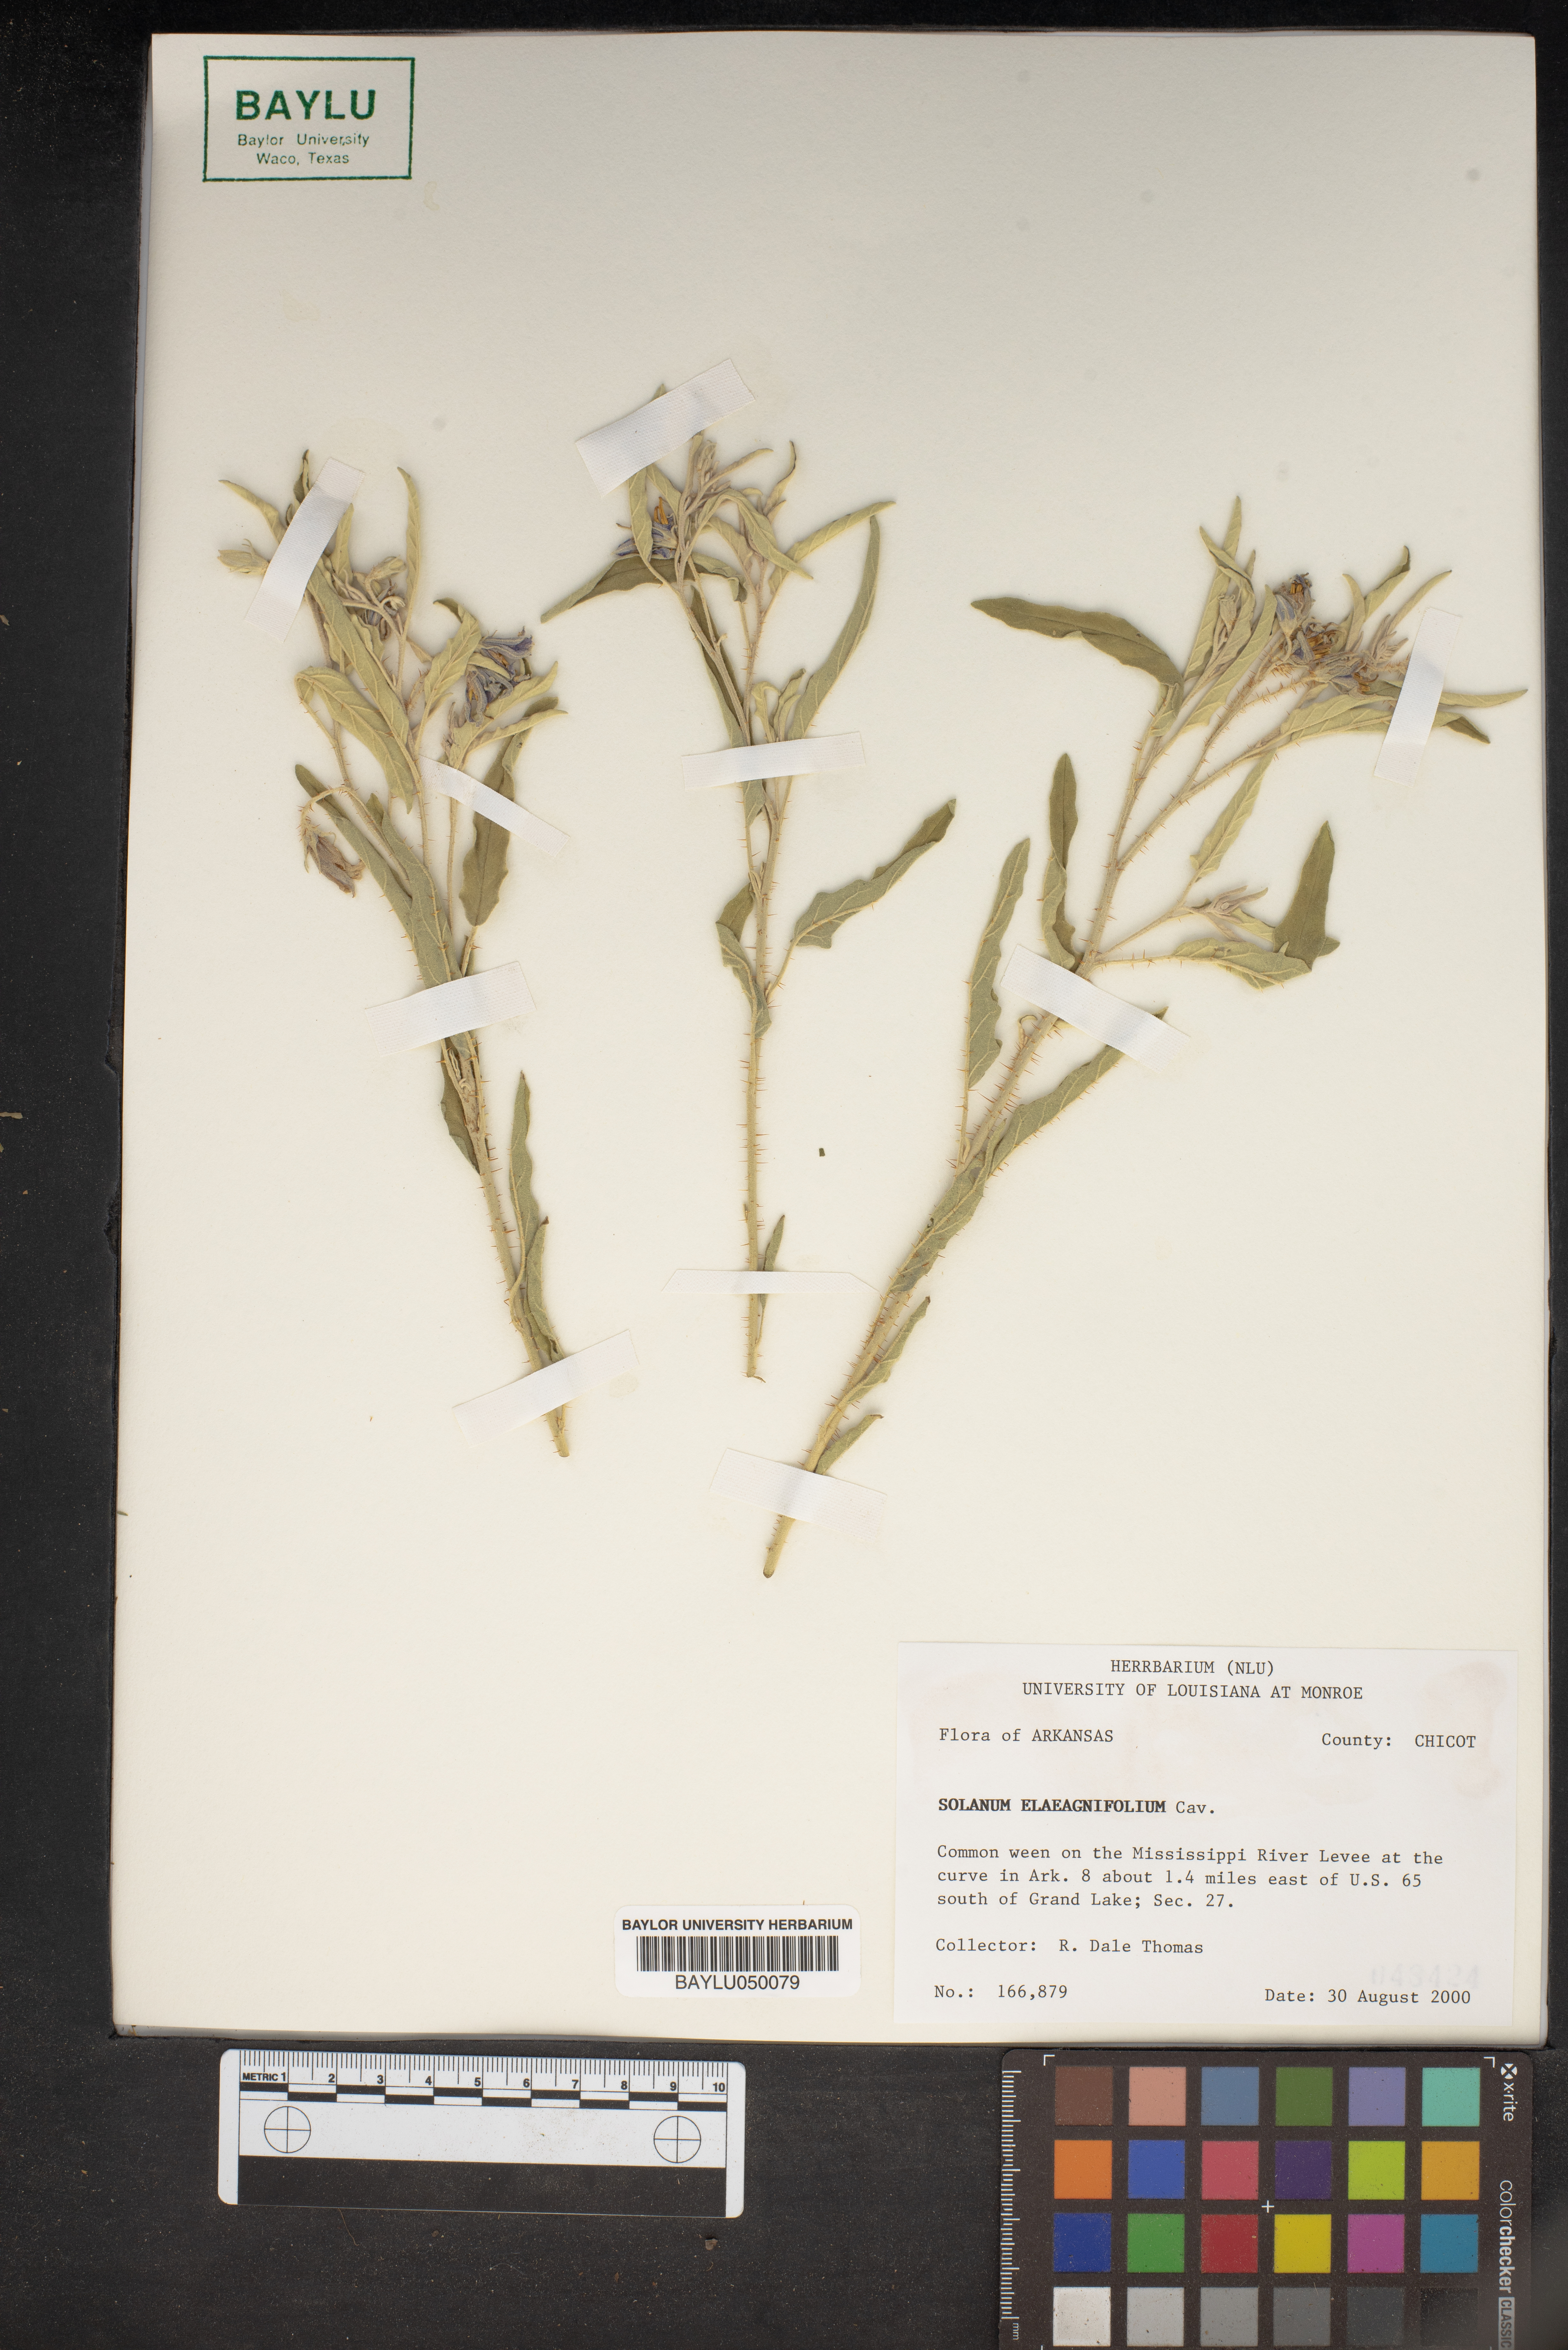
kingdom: Plantae
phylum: Tracheophyta
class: Magnoliopsida
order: Solanales
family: Solanaceae
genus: Solanum
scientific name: Solanum elaeagnifolium
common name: Silverleaf nightshade
